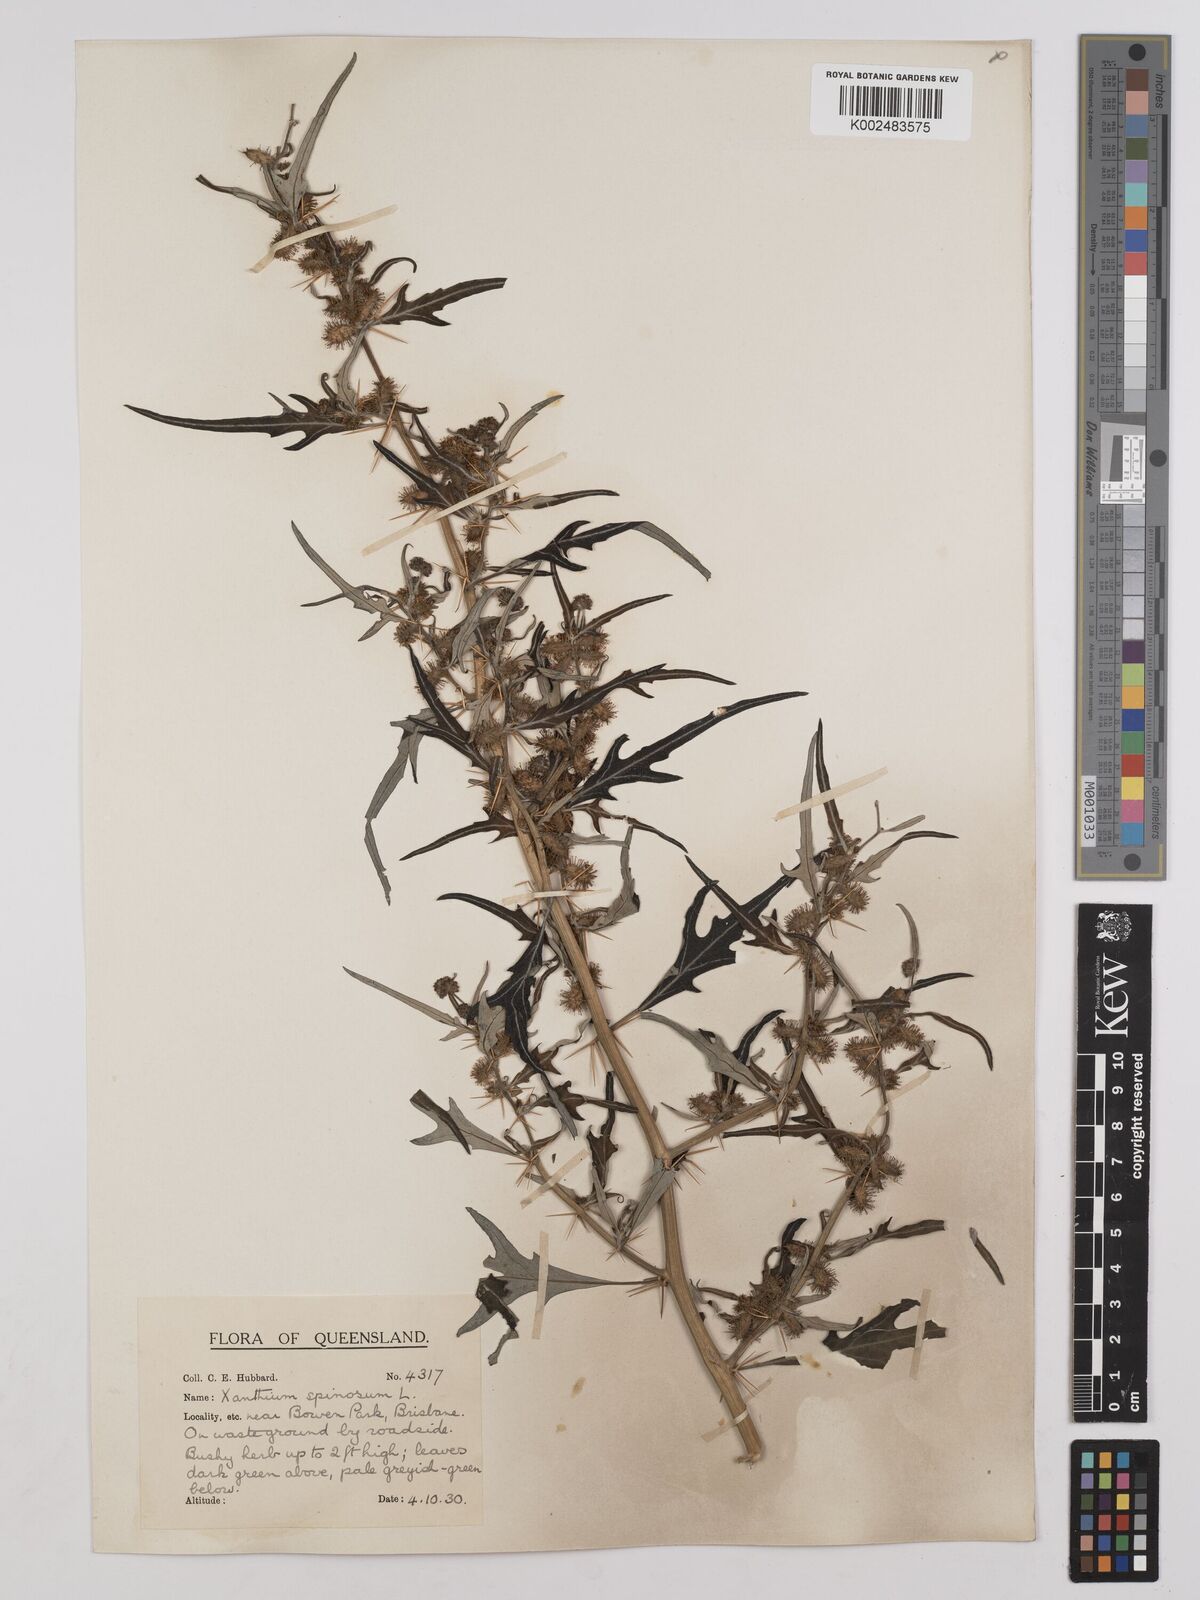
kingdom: Plantae
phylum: Tracheophyta
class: Magnoliopsida
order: Asterales
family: Asteraceae
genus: Xanthium
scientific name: Xanthium spinosum
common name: Spiny cocklebur
